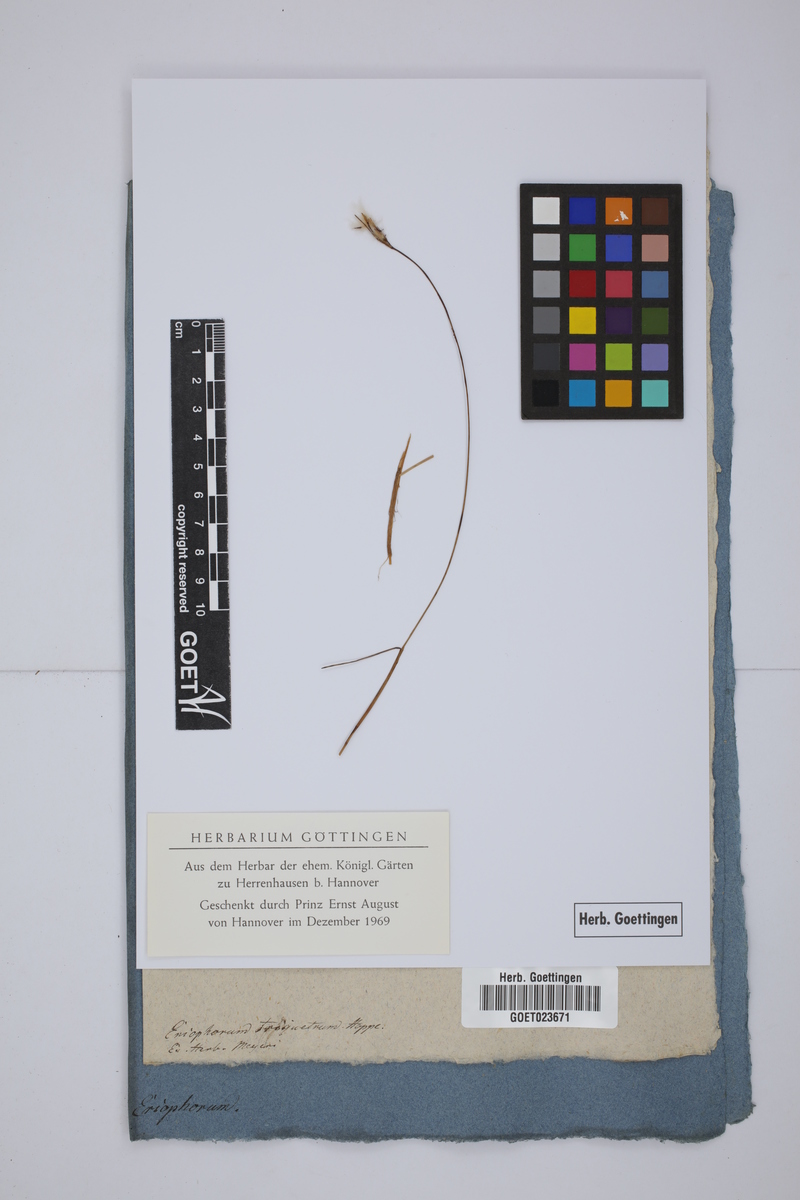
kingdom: Plantae
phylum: Tracheophyta
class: Liliopsida
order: Poales
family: Cyperaceae
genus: Eriophorum
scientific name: Eriophorum gracile
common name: Slender cottongrass
